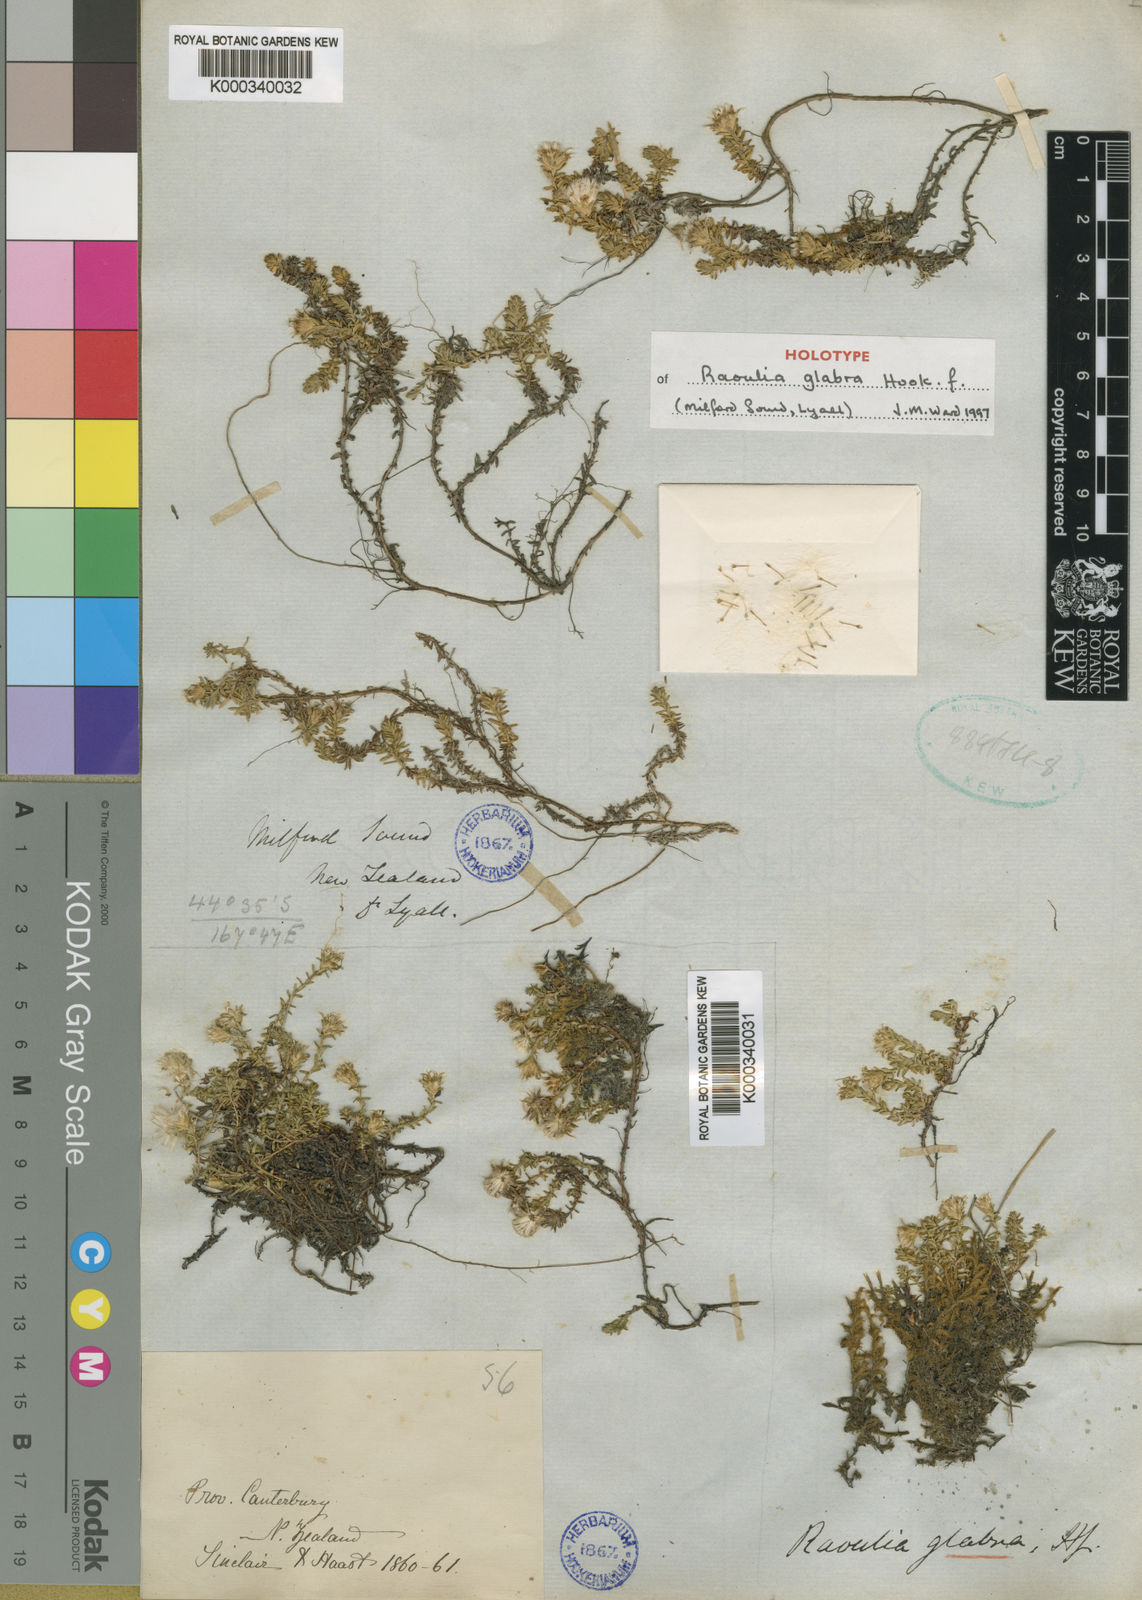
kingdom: Plantae
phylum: Tracheophyta
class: Magnoliopsida
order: Asterales
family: Asteraceae
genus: Raoulia
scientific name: Raoulia glabra
